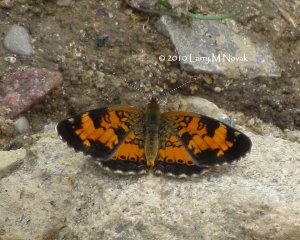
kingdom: Animalia
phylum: Arthropoda
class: Insecta
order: Lepidoptera
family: Nymphalidae
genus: Phyciodes
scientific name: Phyciodes tharos
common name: Northern Crescent
